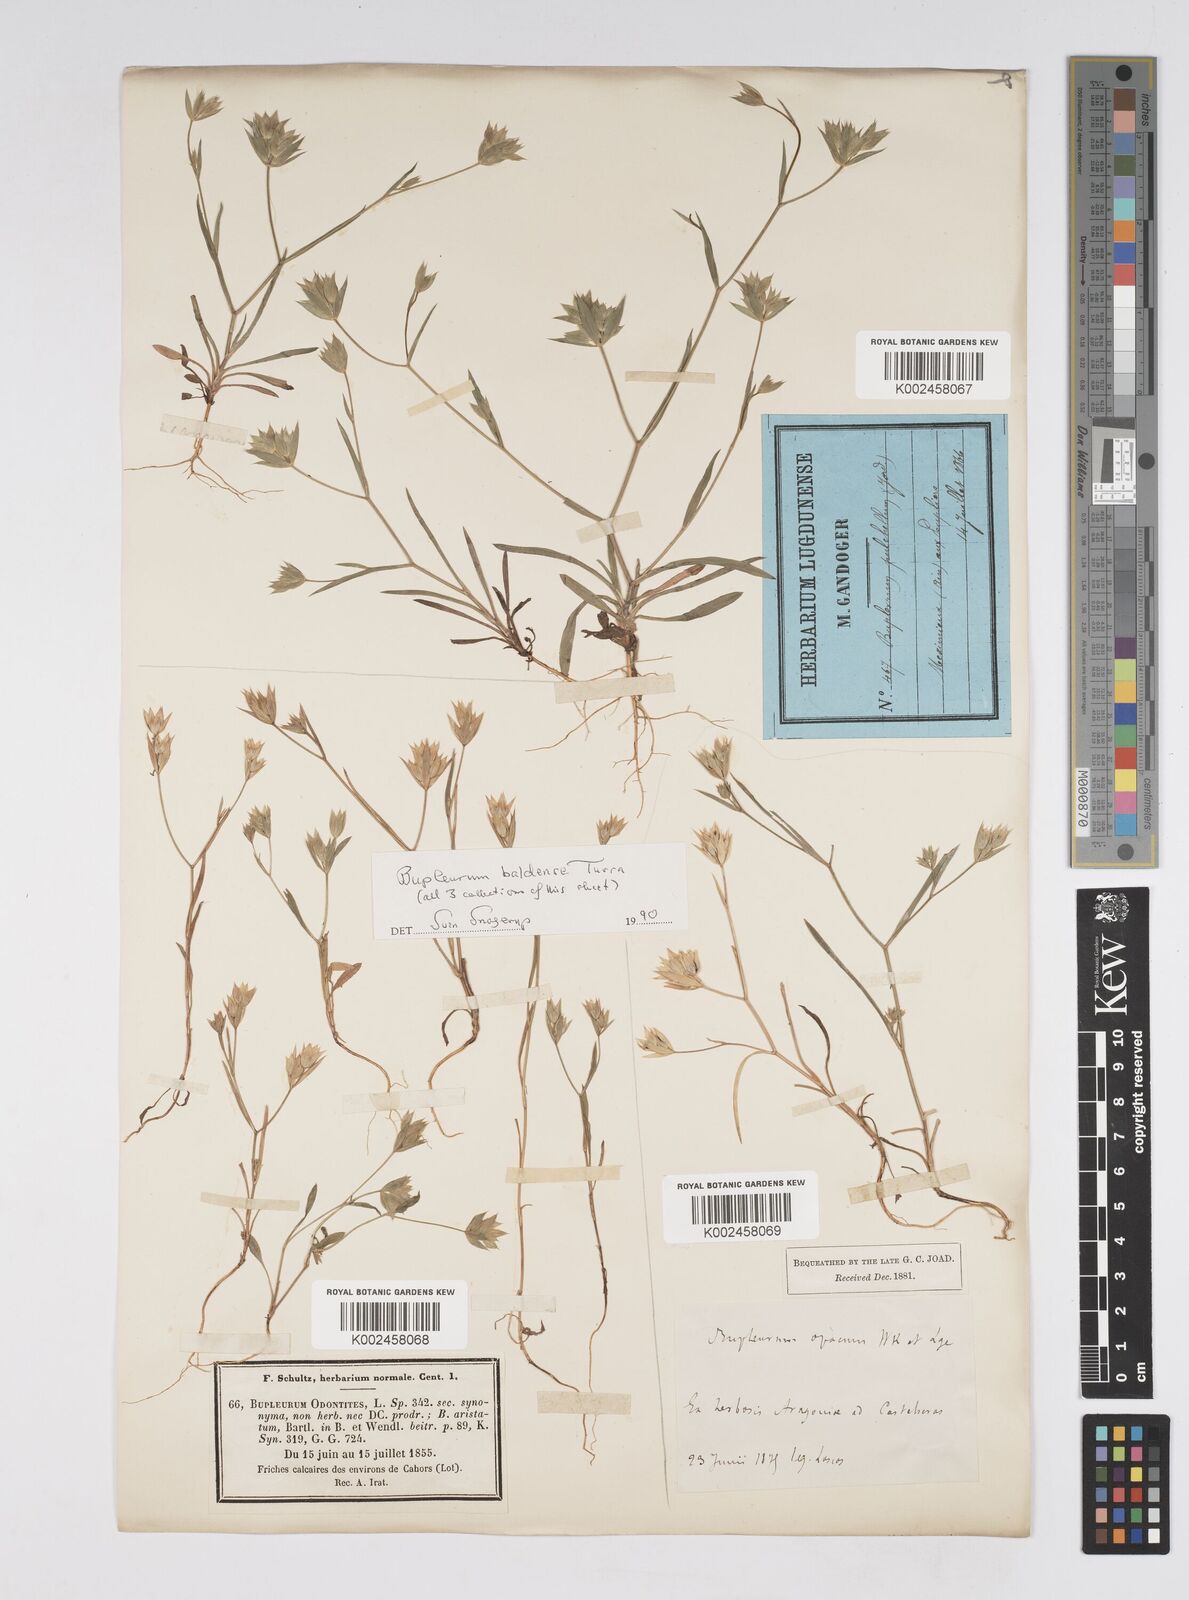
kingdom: Plantae
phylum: Tracheophyta
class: Magnoliopsida
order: Apiales
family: Apiaceae
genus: Bupleurum
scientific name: Bupleurum baldense
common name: Small hare's-ear
